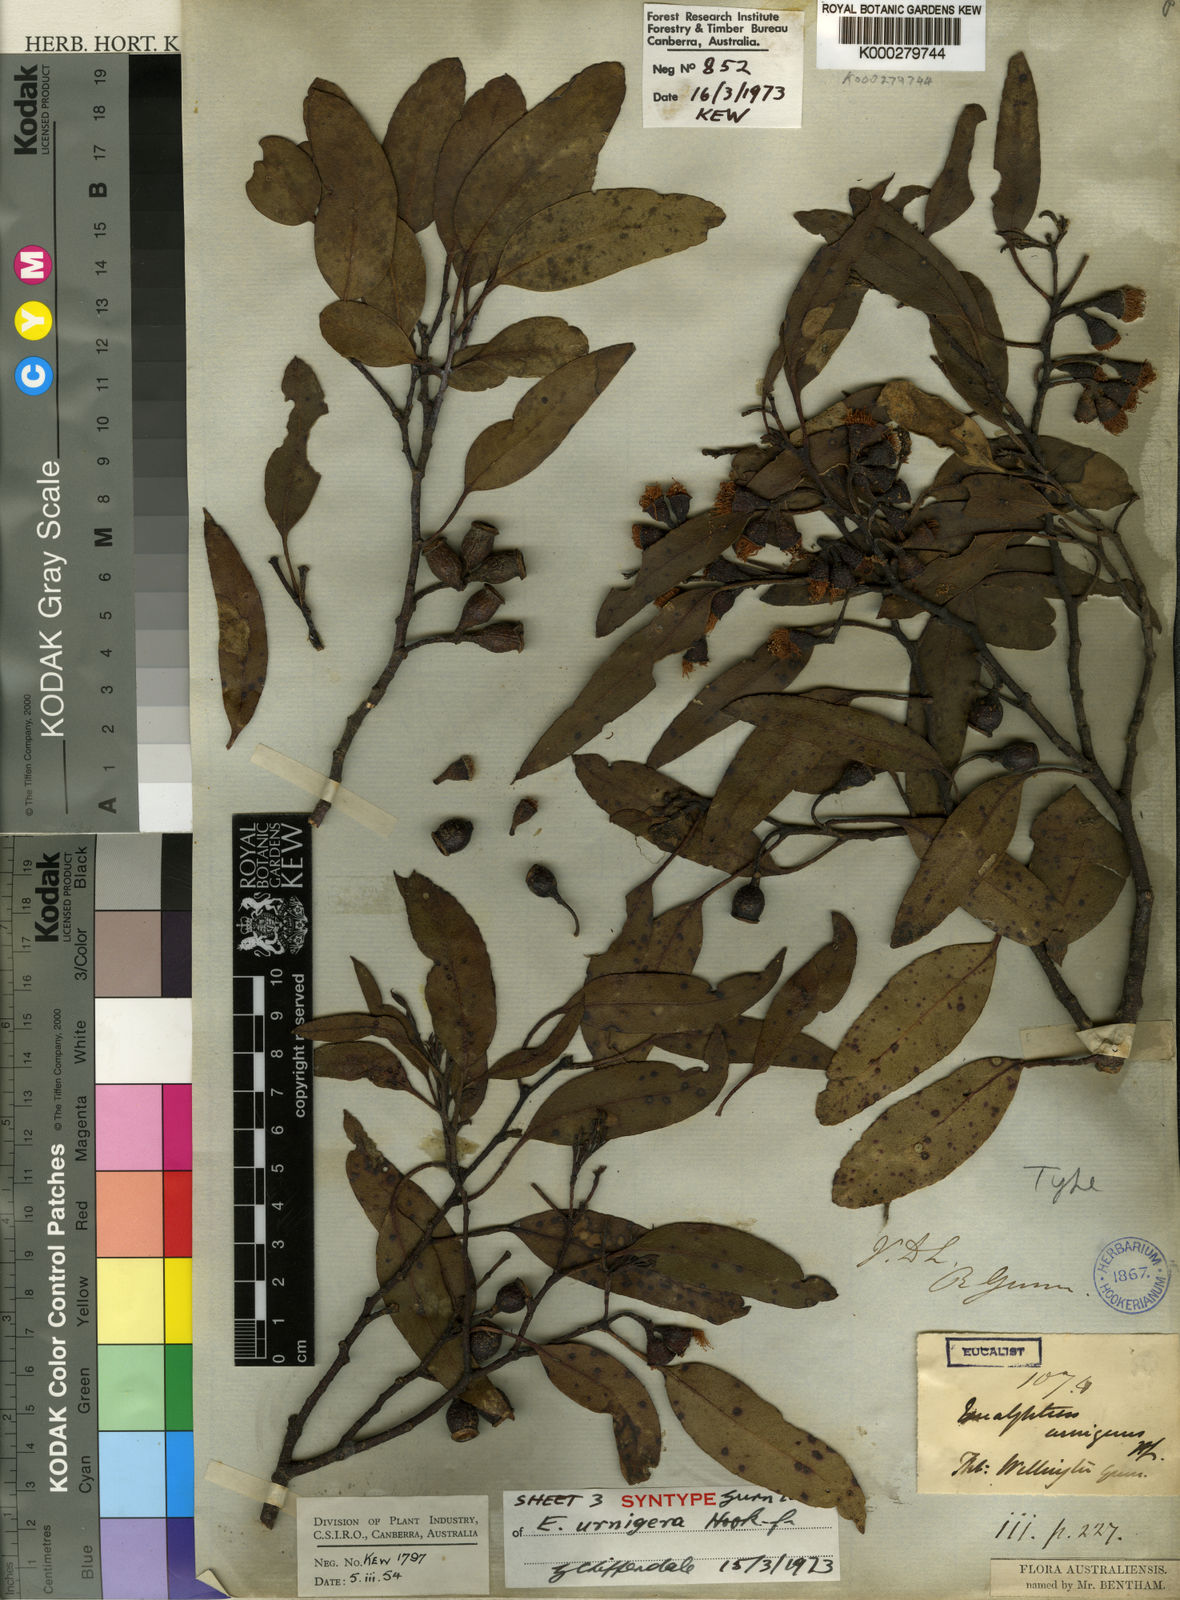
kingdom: Plantae
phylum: Tracheophyta
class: Magnoliopsida
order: Myrtales
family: Myrtaceae
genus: Eucalyptus
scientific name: Eucalyptus urnigera
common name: Urn-fruited gum
